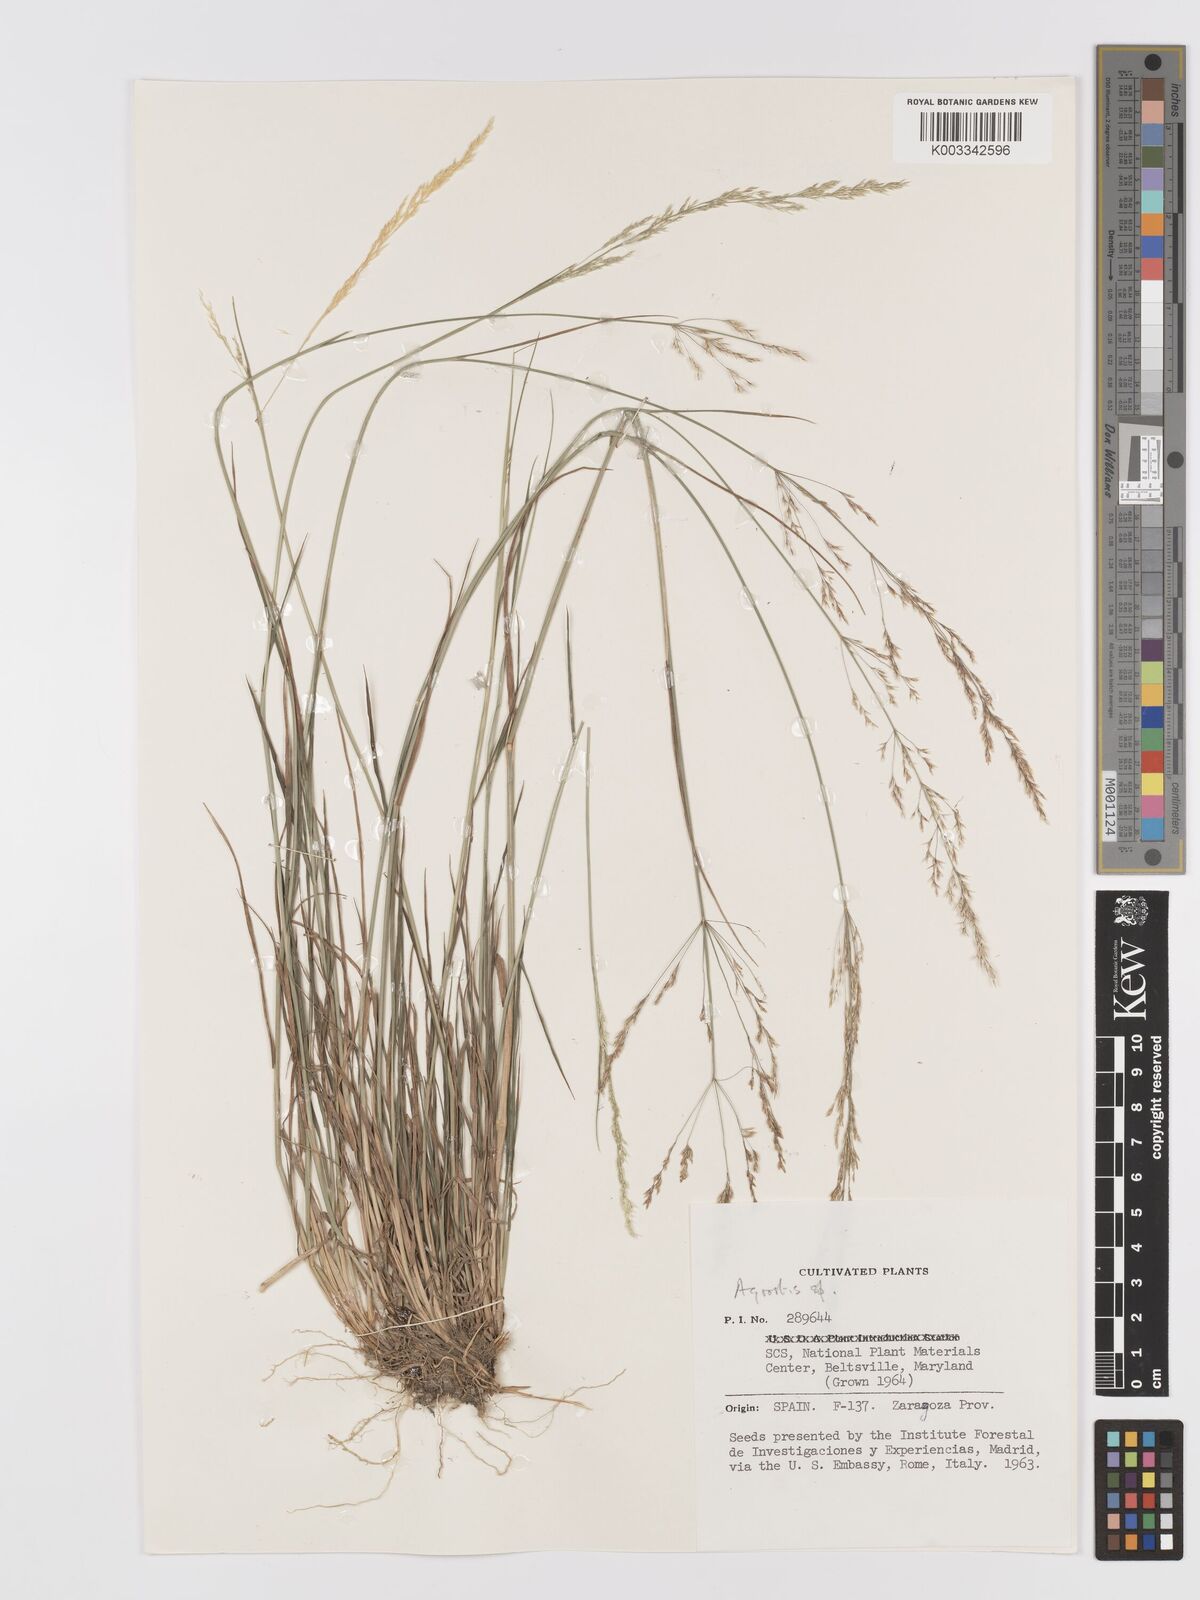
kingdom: Plantae
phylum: Tracheophyta
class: Liliopsida
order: Poales
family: Poaceae
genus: Agrostis
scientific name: Agrostis
